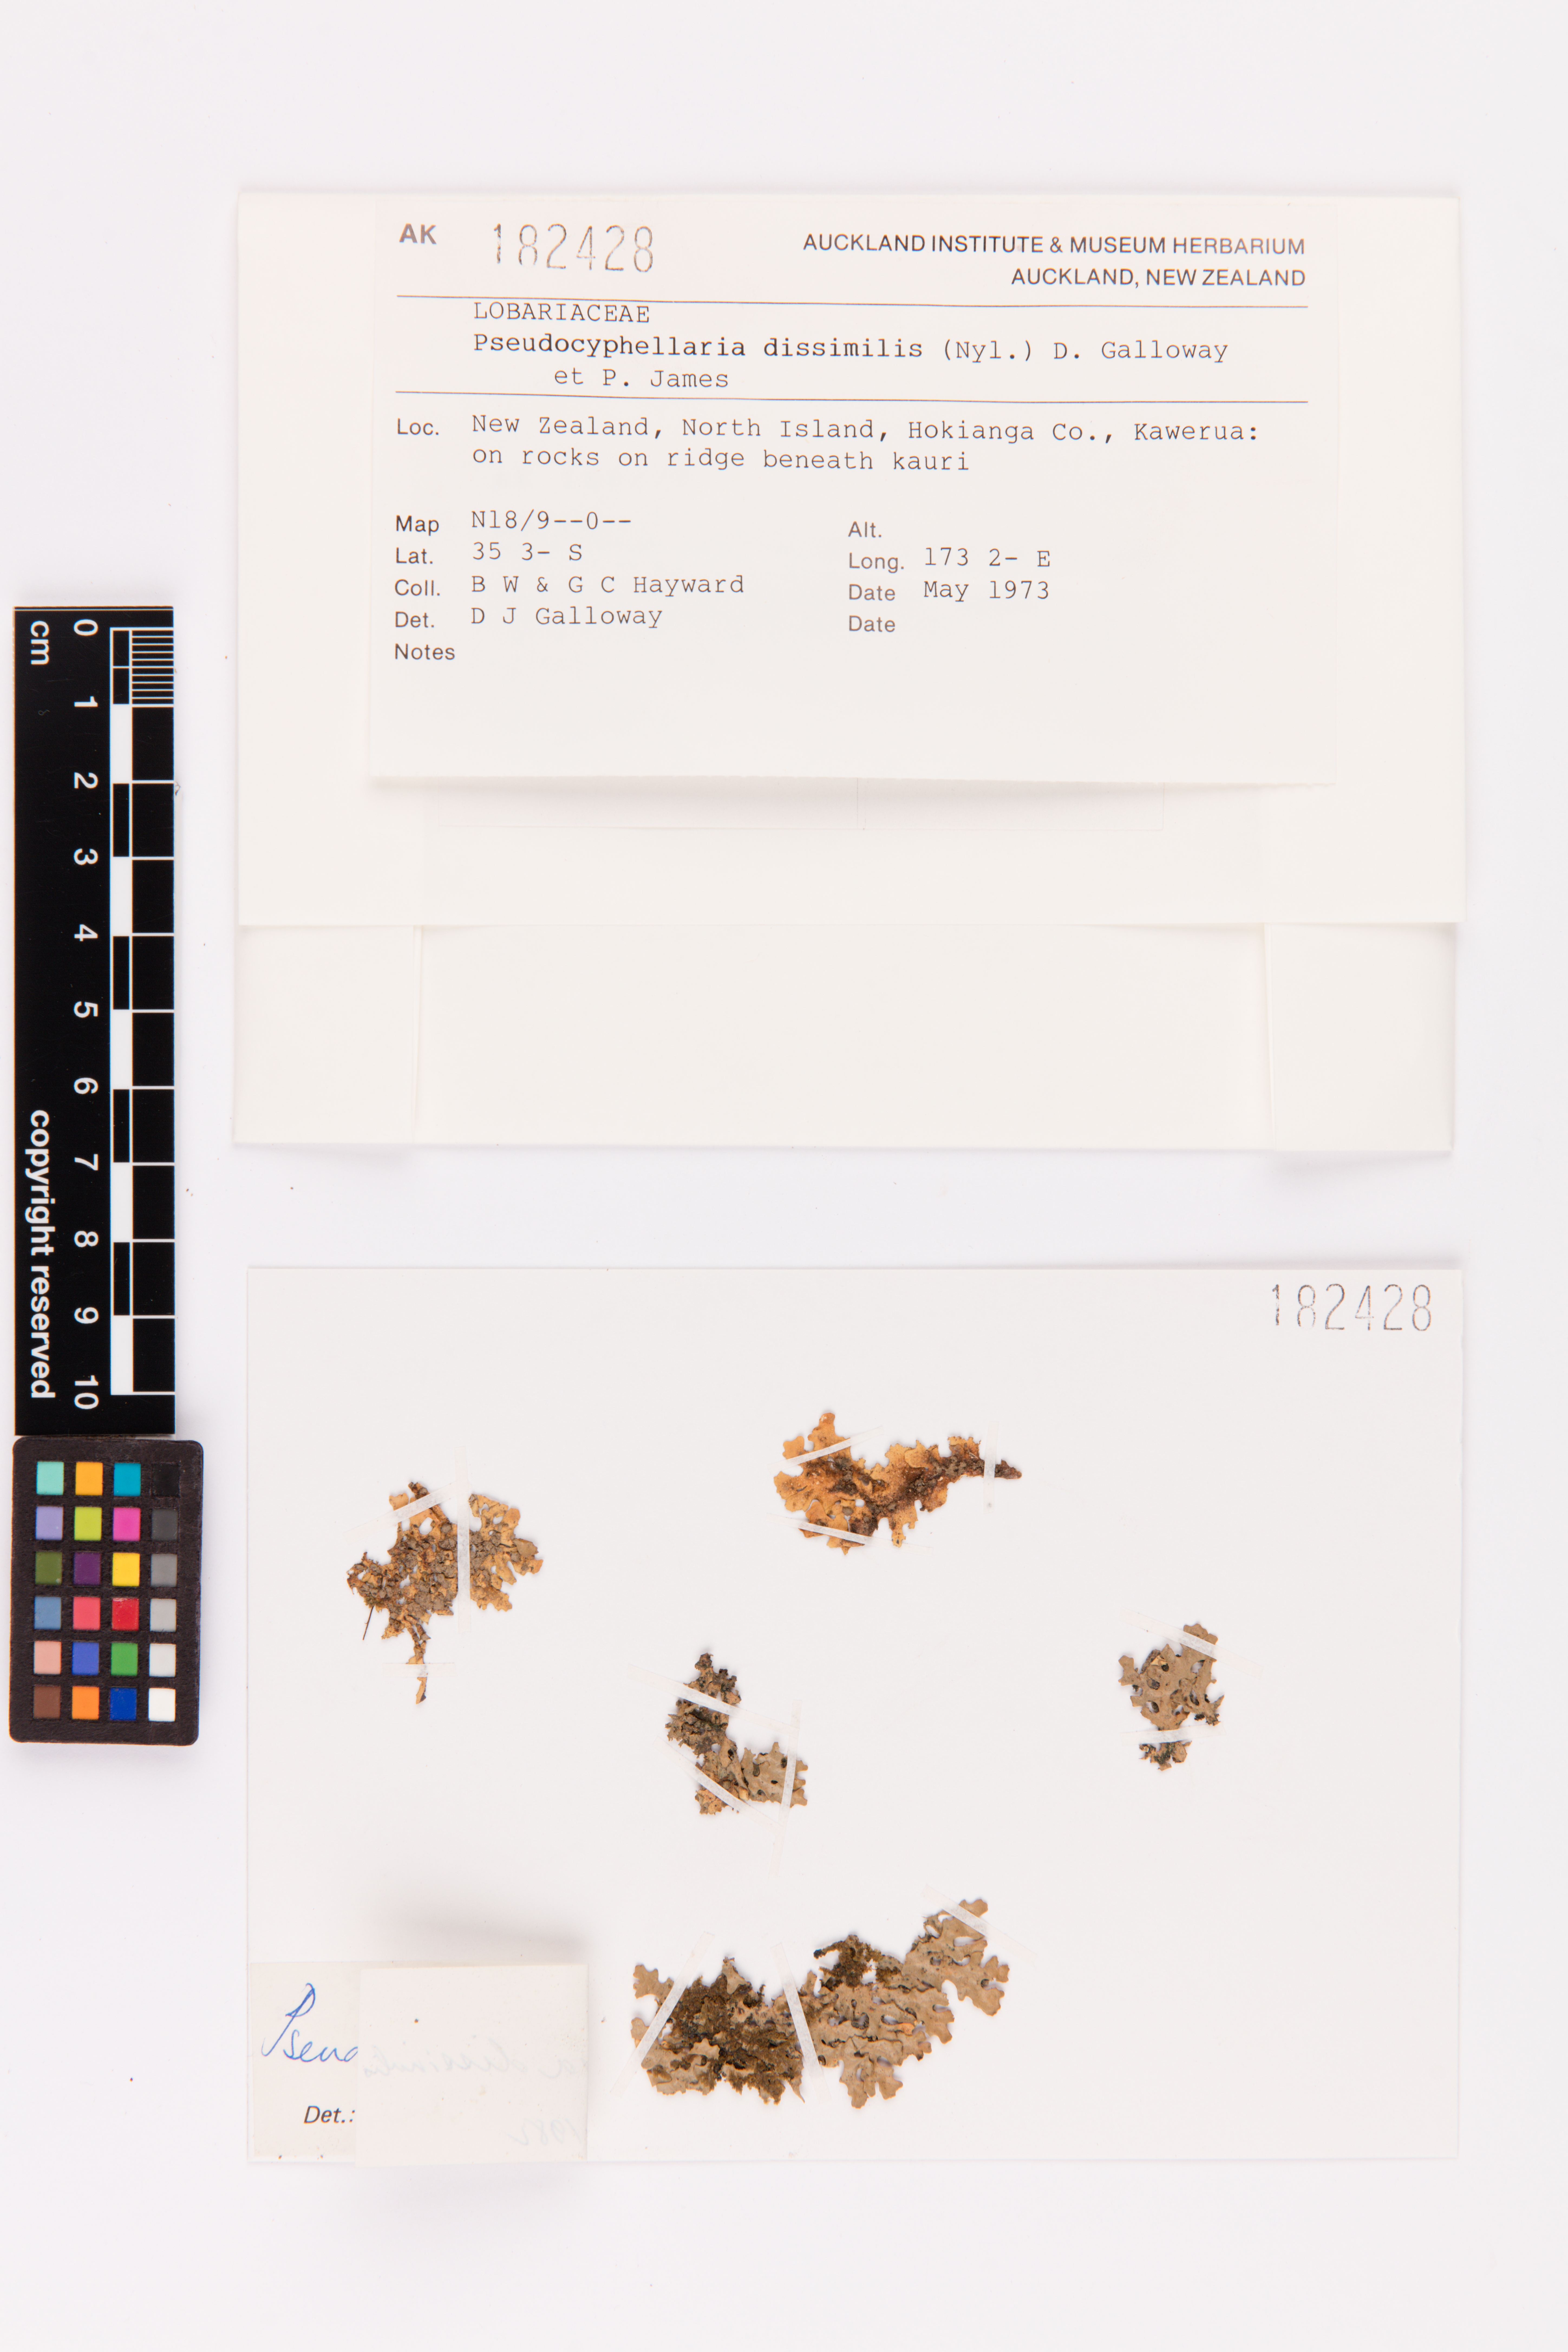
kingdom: Fungi
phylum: Ascomycota
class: Lecanoromycetes
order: Peltigerales
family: Lobariaceae
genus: Pseudocyphellaria
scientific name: Pseudocyphellaria dissimilis
